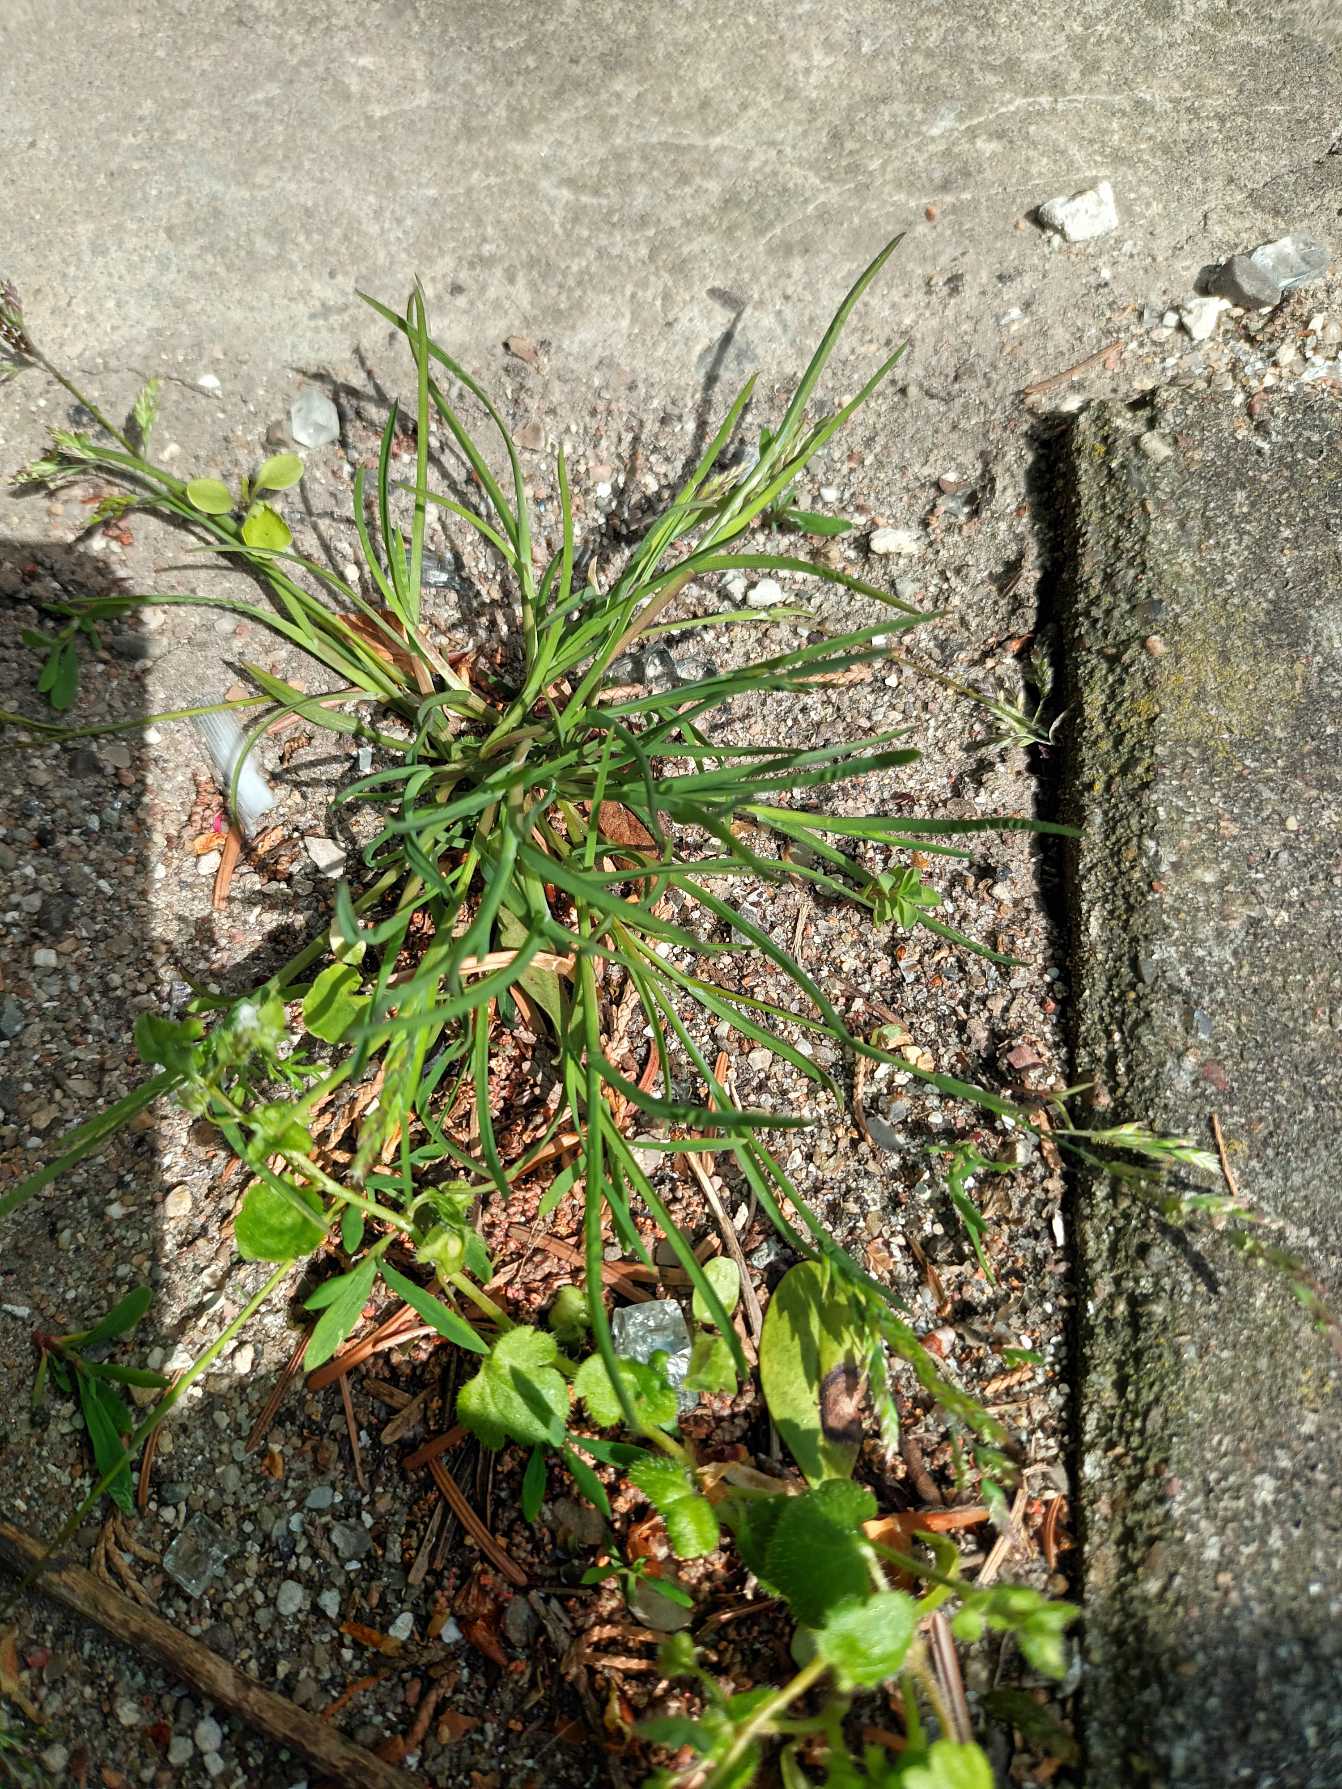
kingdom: Plantae
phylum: Tracheophyta
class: Liliopsida
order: Poales
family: Poaceae
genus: Poa
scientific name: Poa annua
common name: Enårig rapgræs
